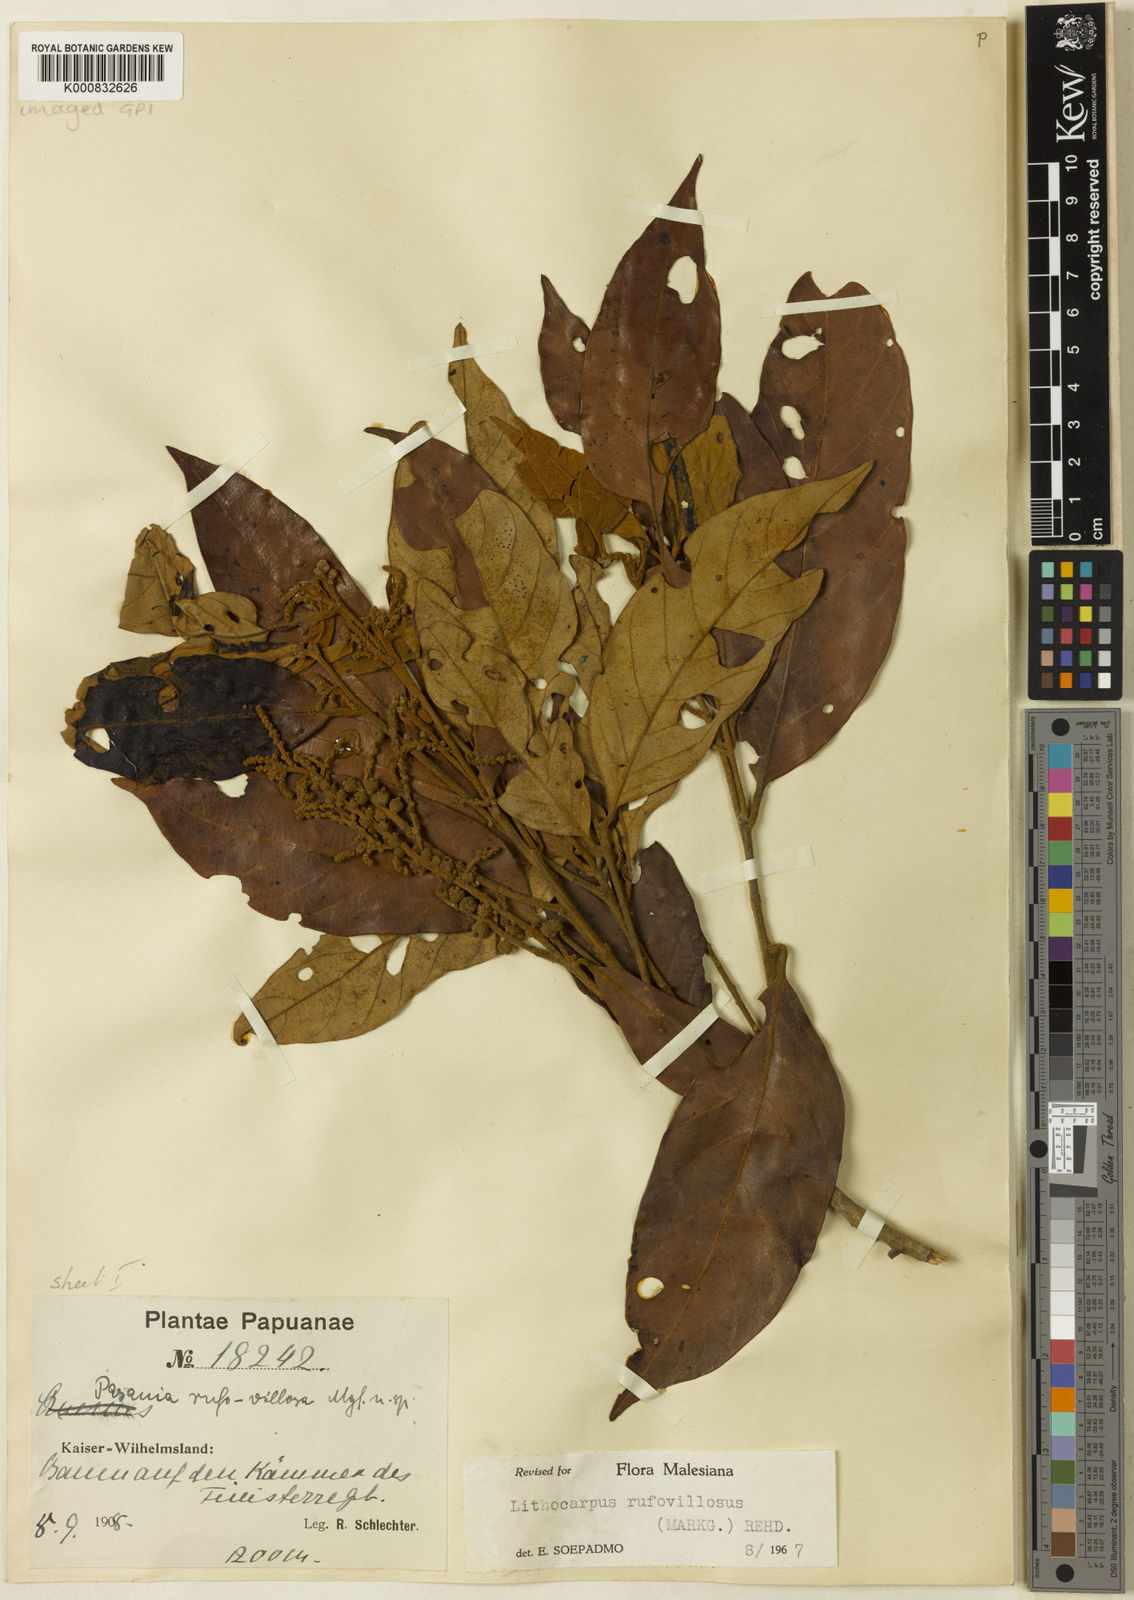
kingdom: Plantae
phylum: Tracheophyta
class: Magnoliopsida
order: Fagales
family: Fagaceae
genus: Lithocarpus
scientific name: Lithocarpus rufovillosus
